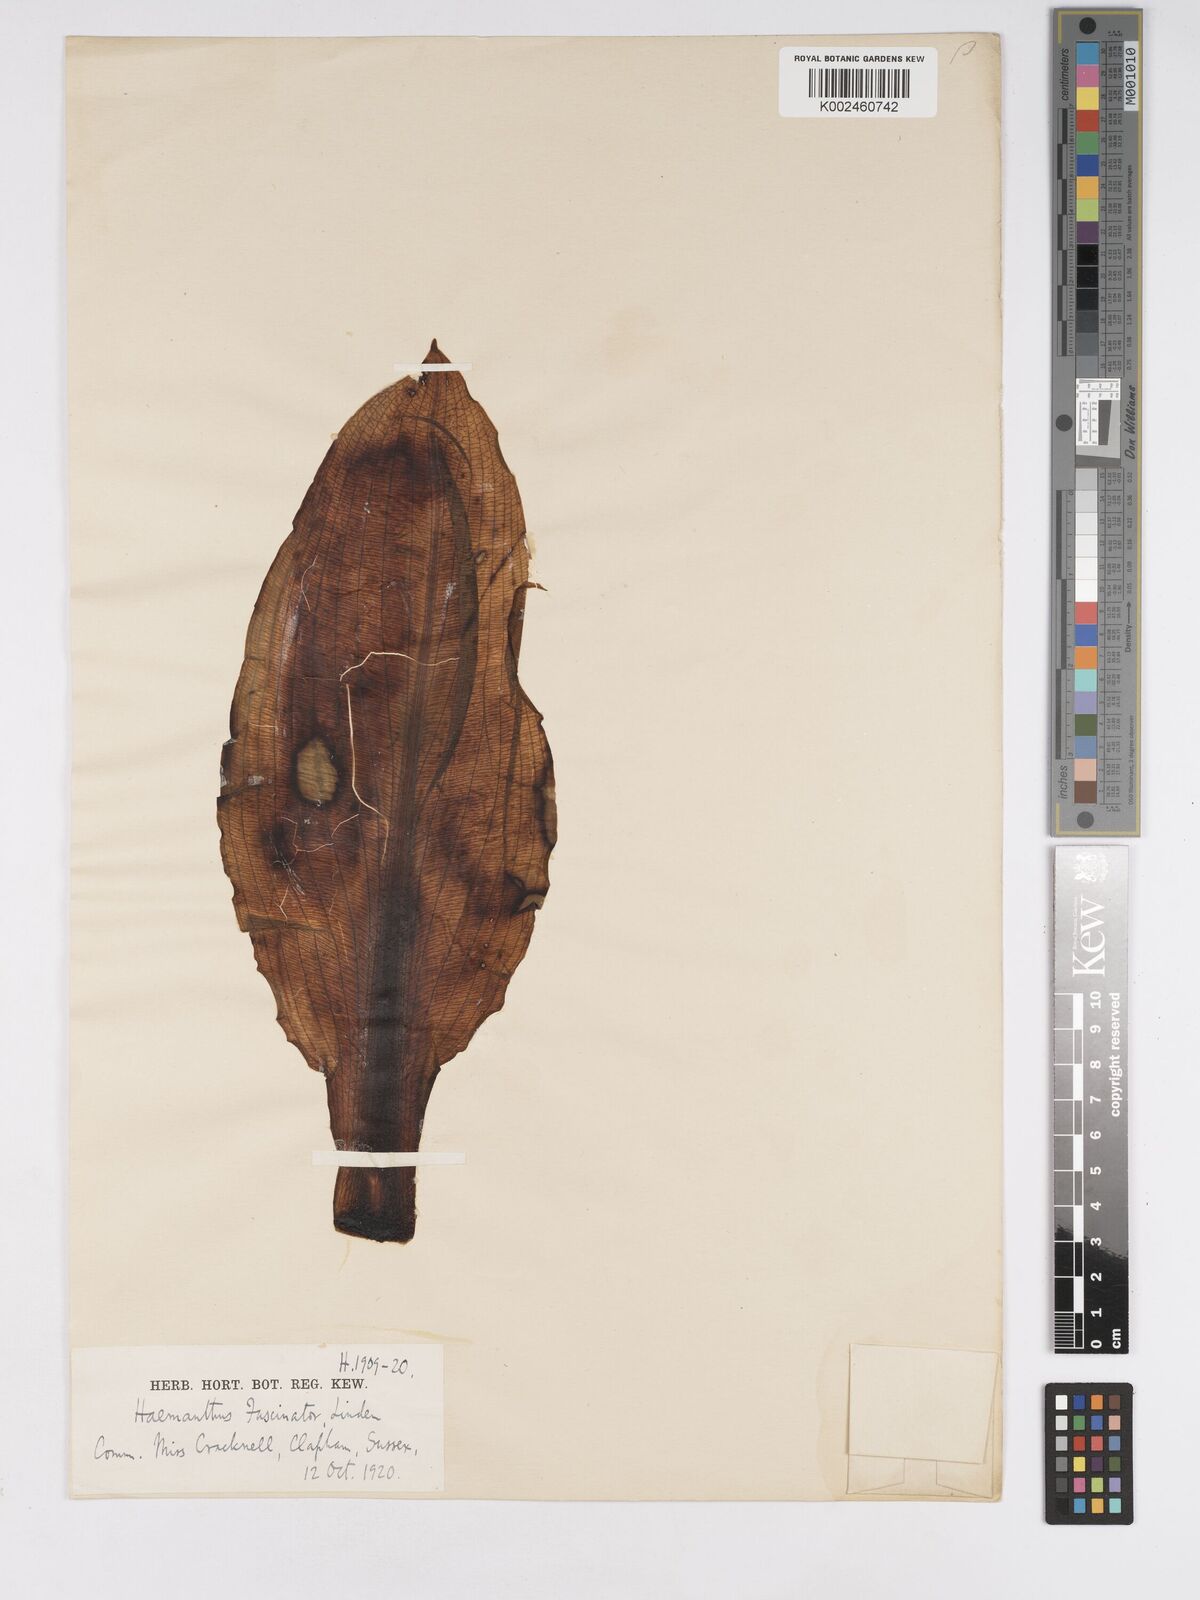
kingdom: Plantae
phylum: Tracheophyta
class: Liliopsida
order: Asparagales
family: Amaryllidaceae
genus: Scadoxus
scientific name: Scadoxus cinnabarinus
